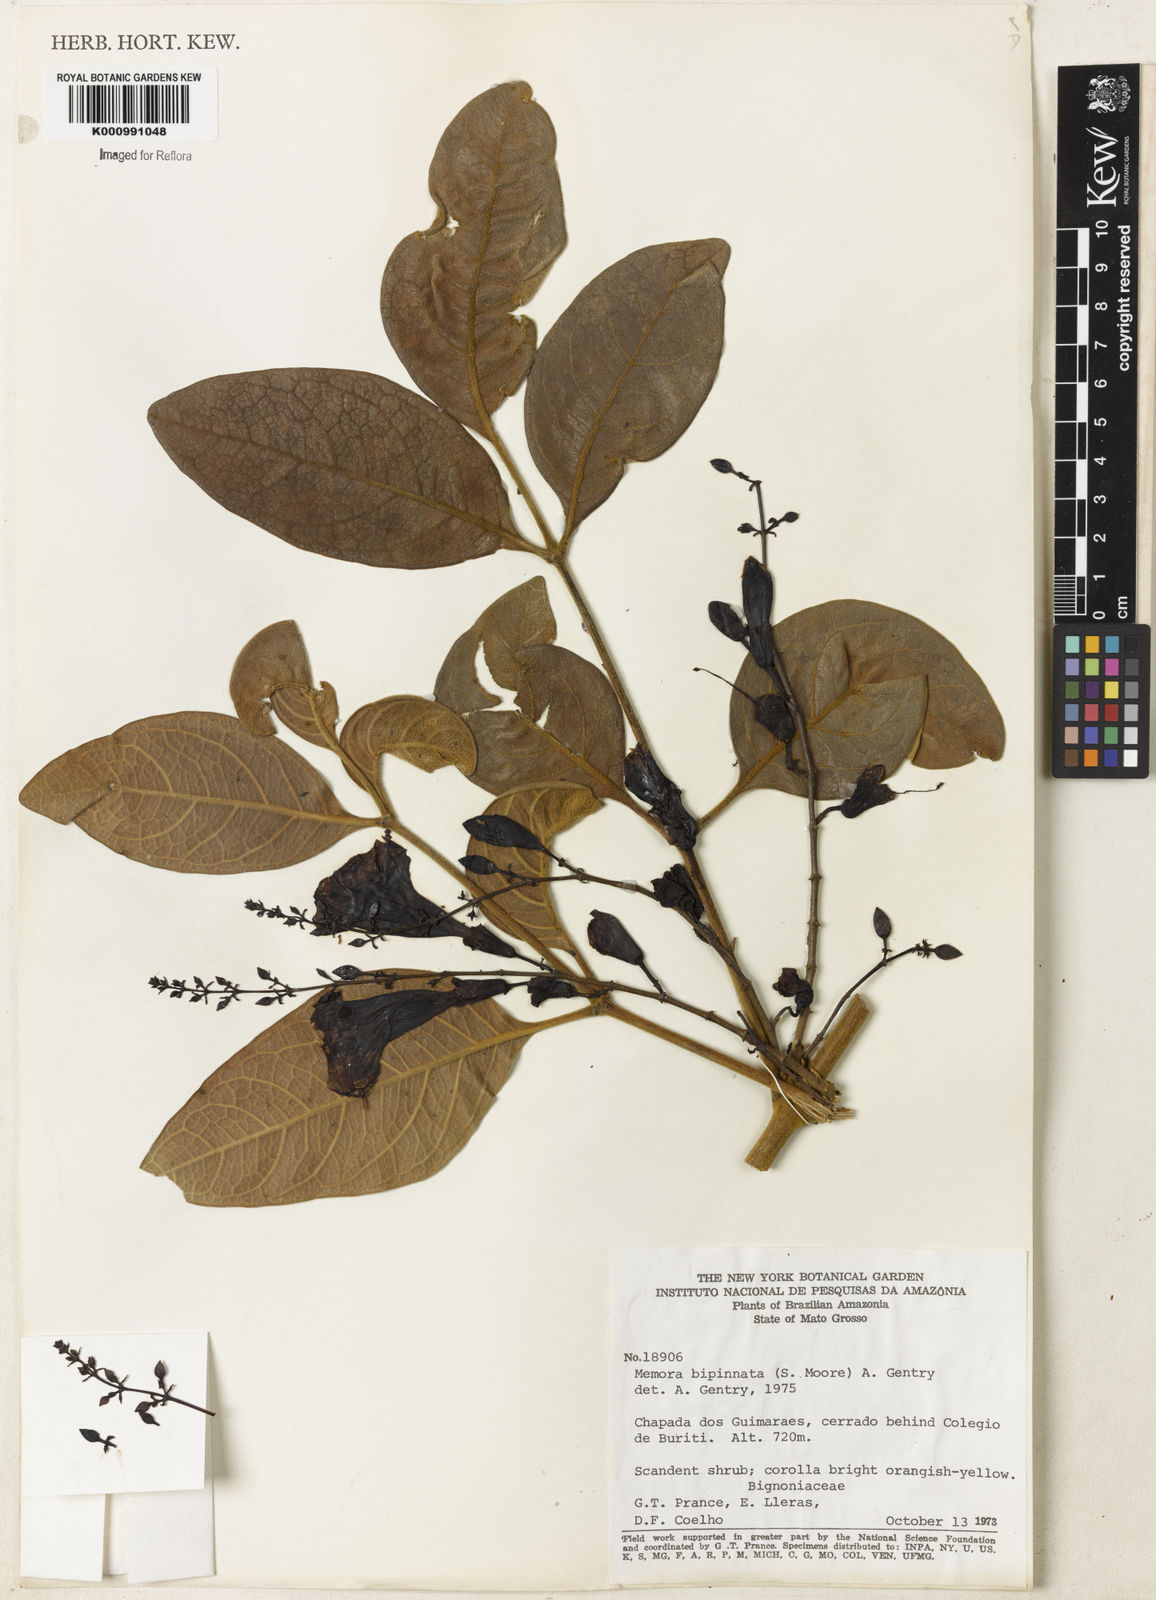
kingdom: Plantae
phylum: Tracheophyta
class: Magnoliopsida
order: Lamiales
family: Bignoniaceae
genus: Adenocalymma
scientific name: Adenocalymma bipinnatum
